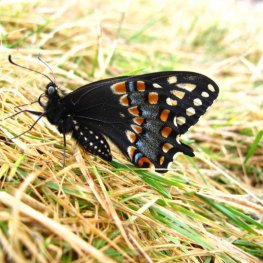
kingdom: Animalia
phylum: Arthropoda
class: Insecta
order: Lepidoptera
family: Papilionidae
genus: Papilio
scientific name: Papilio brevicauda
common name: Short-tailed Swallowtail
